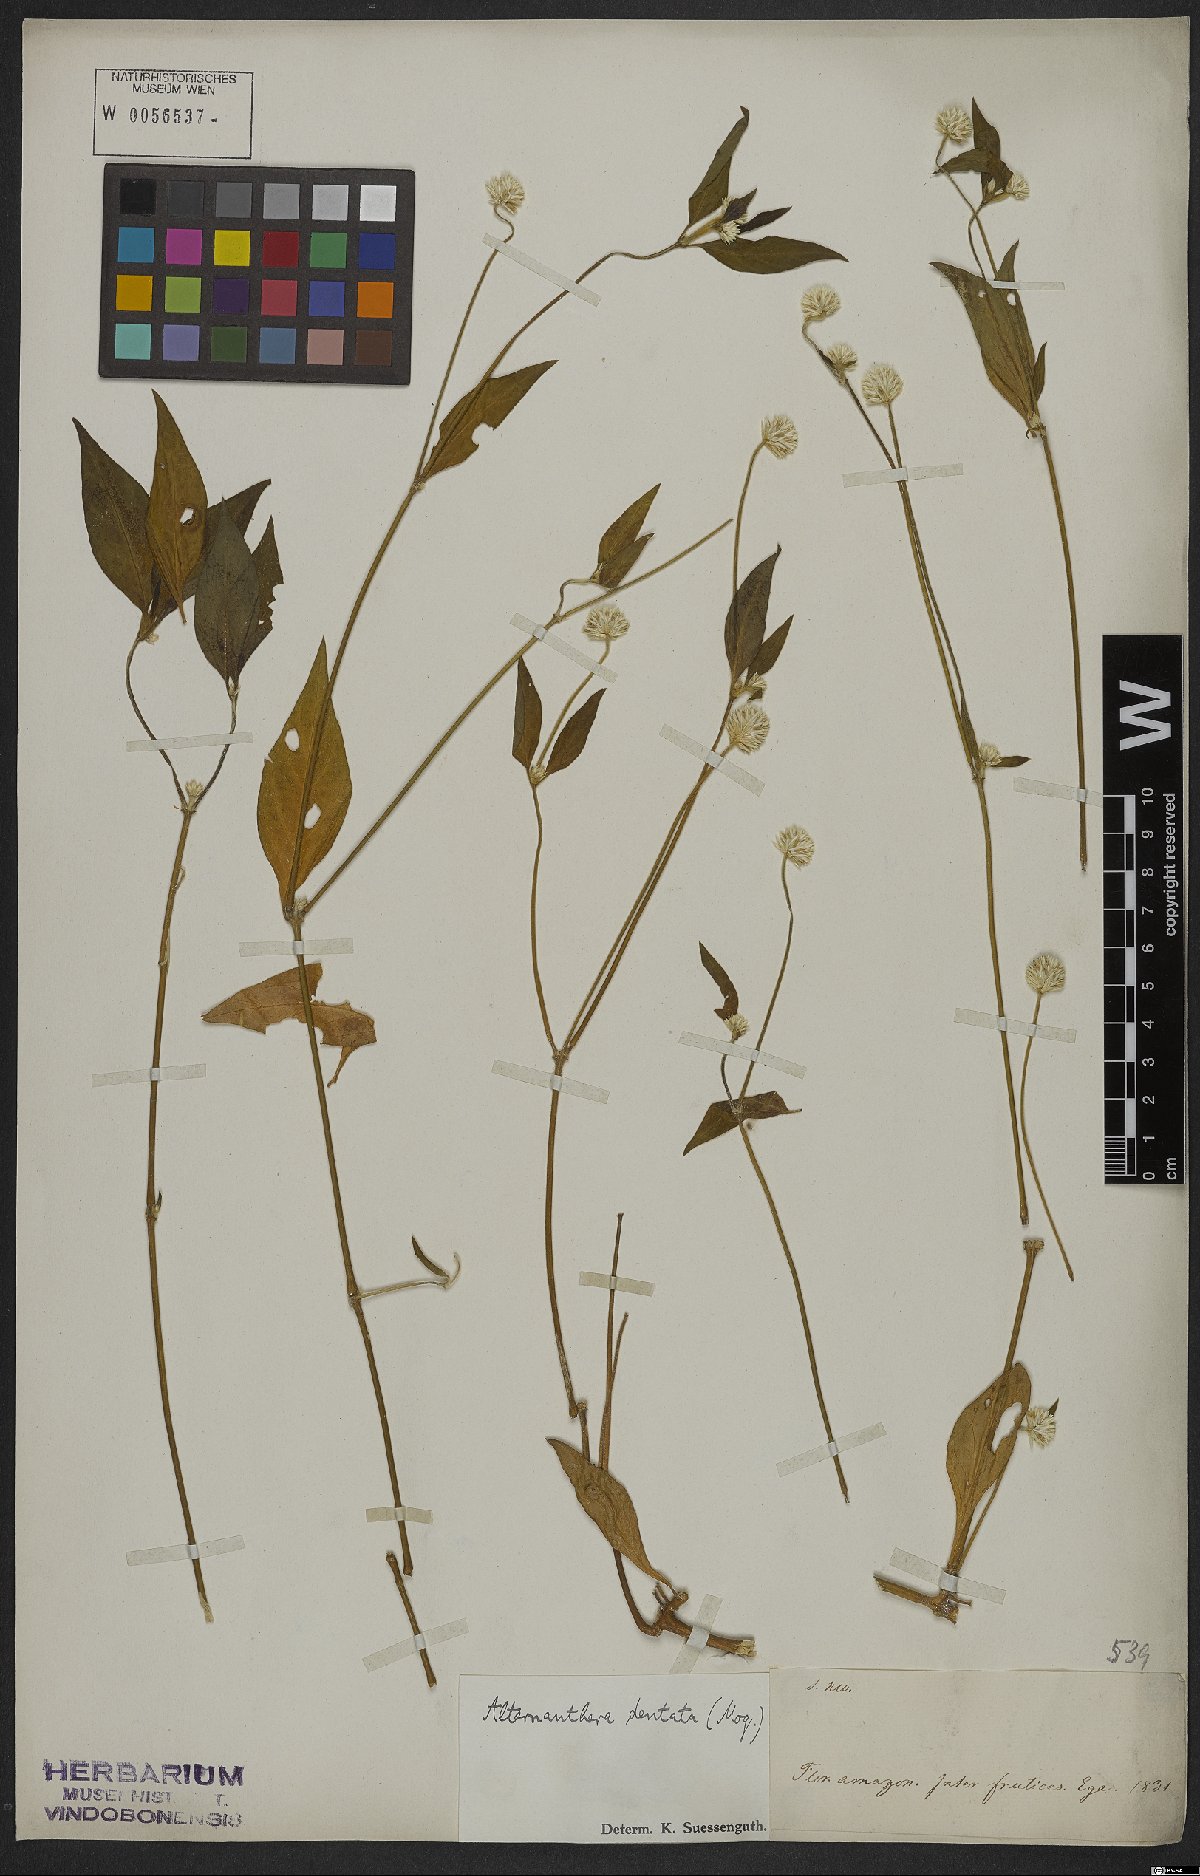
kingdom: Plantae
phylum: Tracheophyta
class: Magnoliopsida
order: Caryophyllales
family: Amaranthaceae
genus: Alternanthera
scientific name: Alternanthera ramosissima
